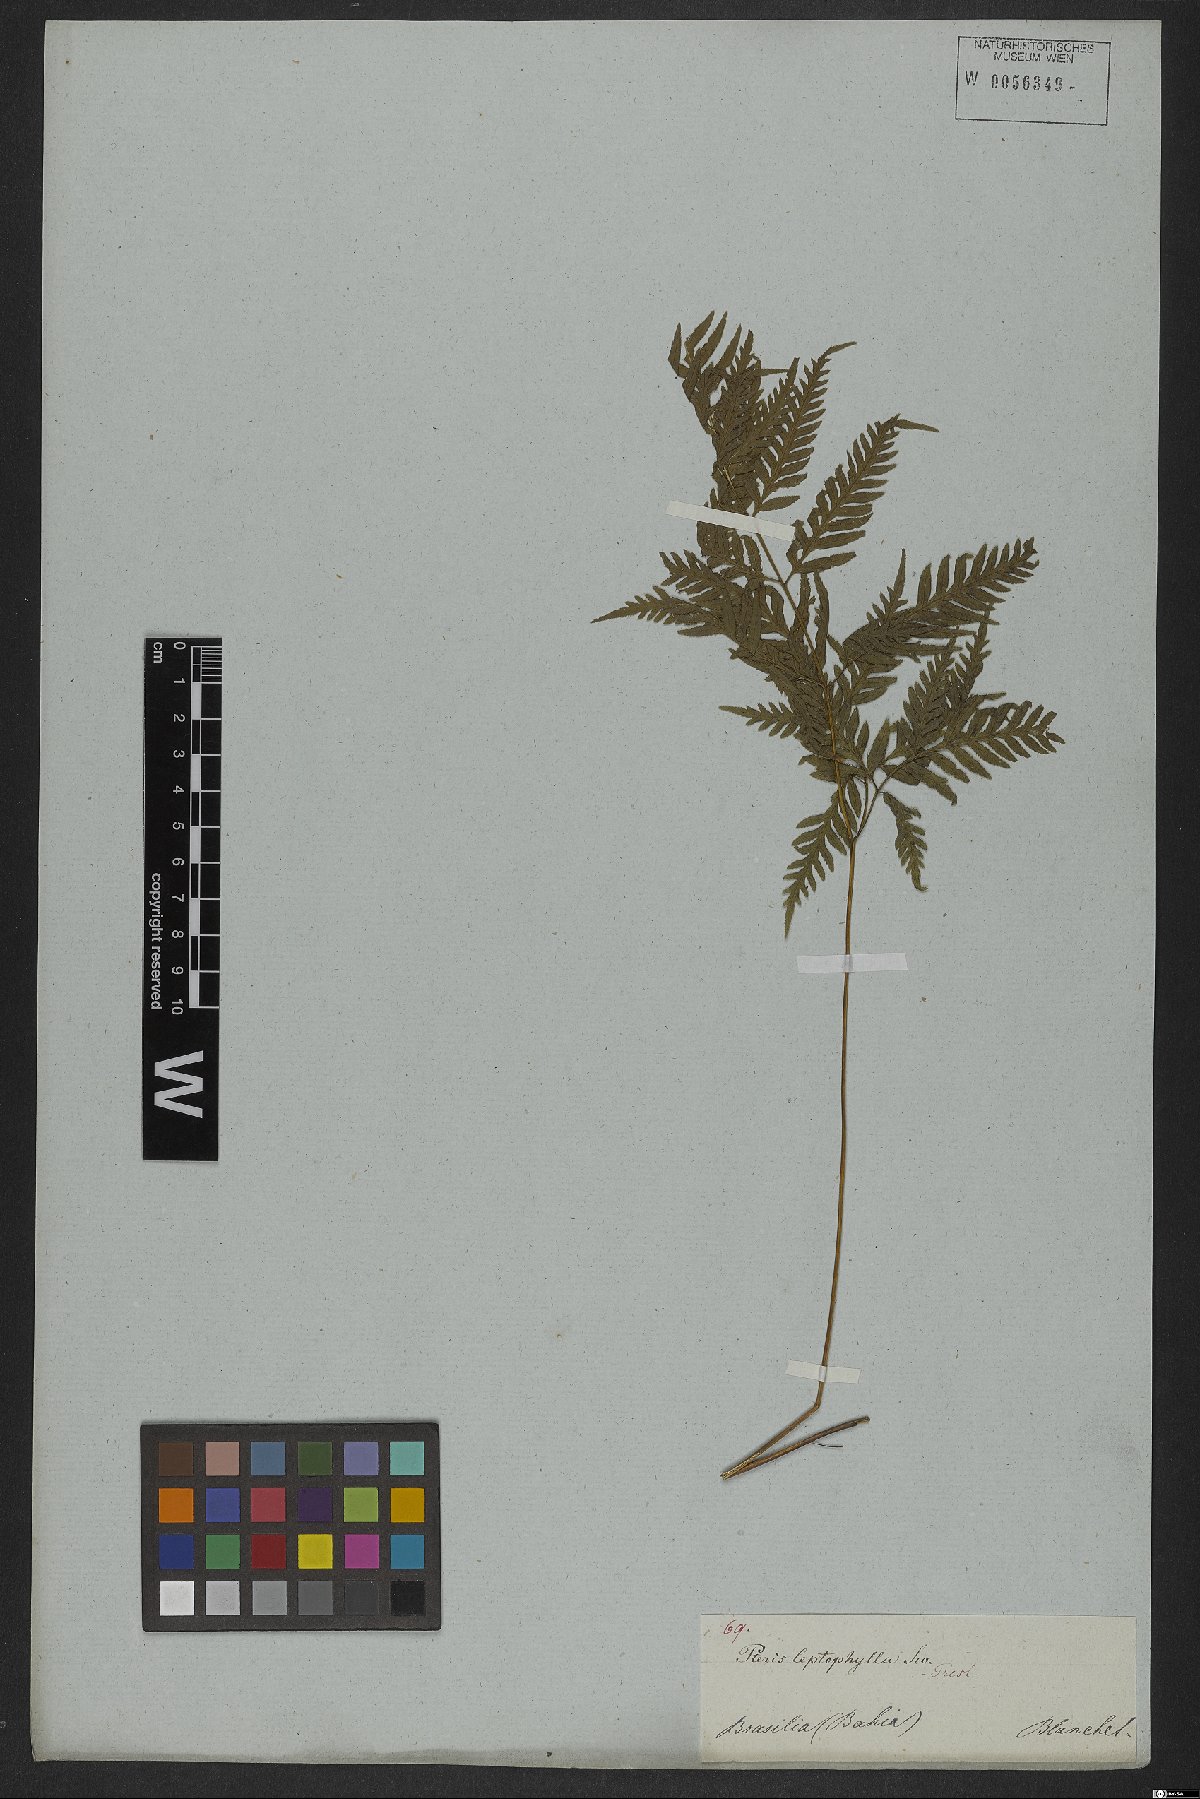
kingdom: Plantae
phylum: Tracheophyta
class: Polypodiopsida
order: Polypodiales
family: Pteridaceae
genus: Pteris
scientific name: Pteris leptophylla
